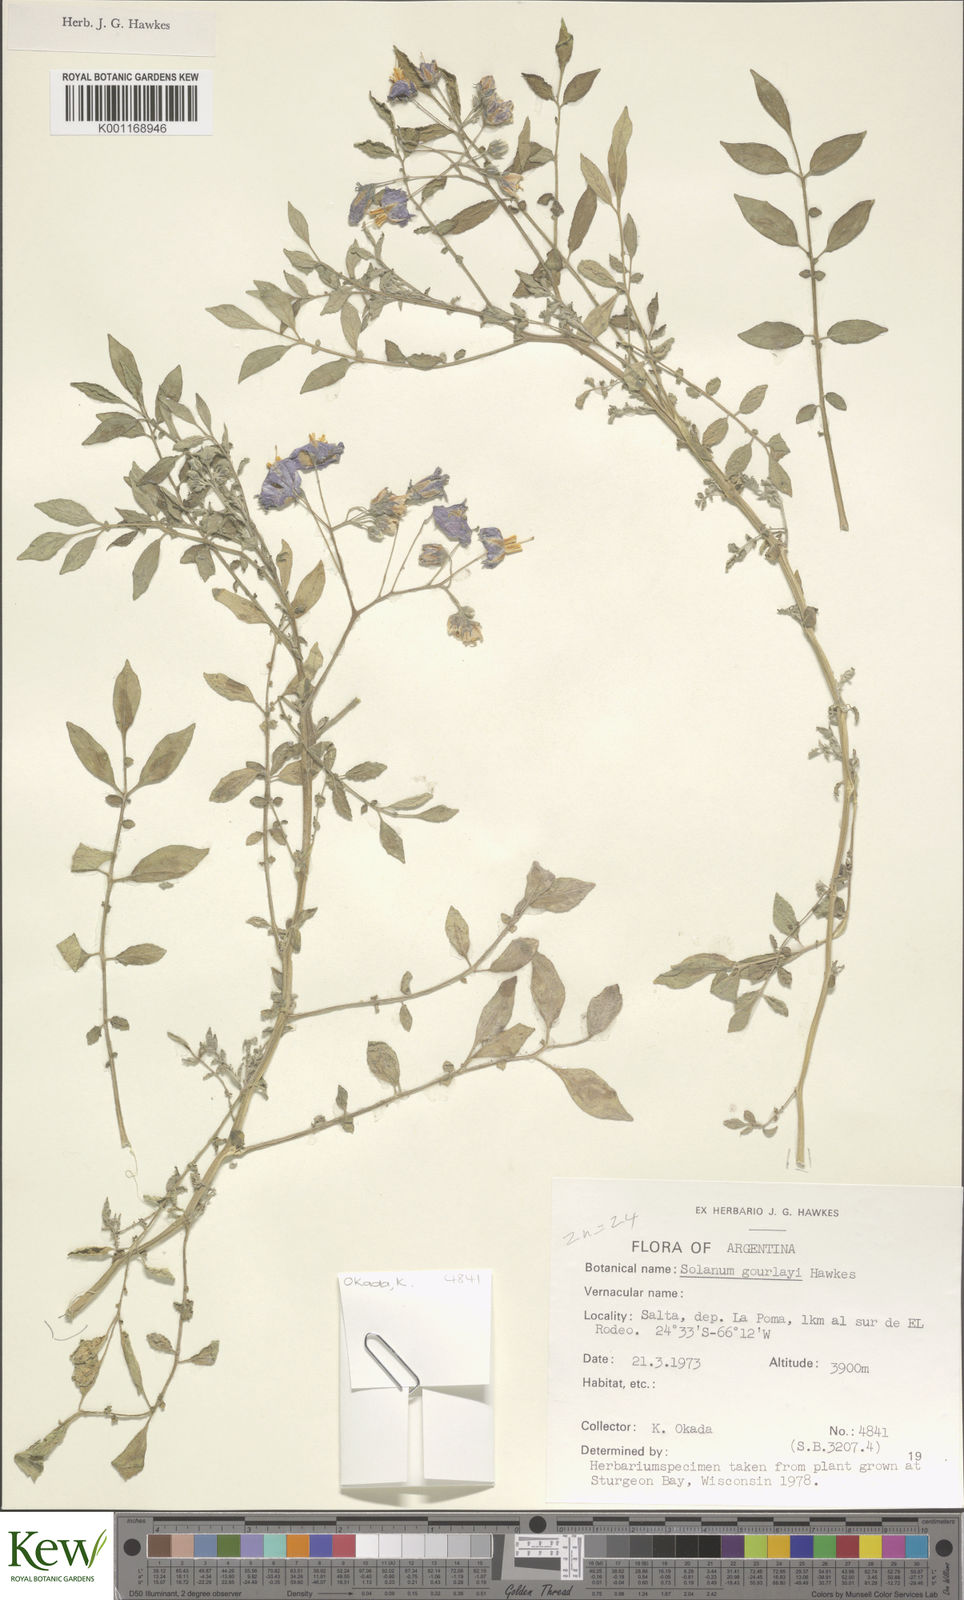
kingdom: Plantae
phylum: Tracheophyta
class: Magnoliopsida
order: Solanales
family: Solanaceae
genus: Solanum
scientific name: Solanum brevicaule
